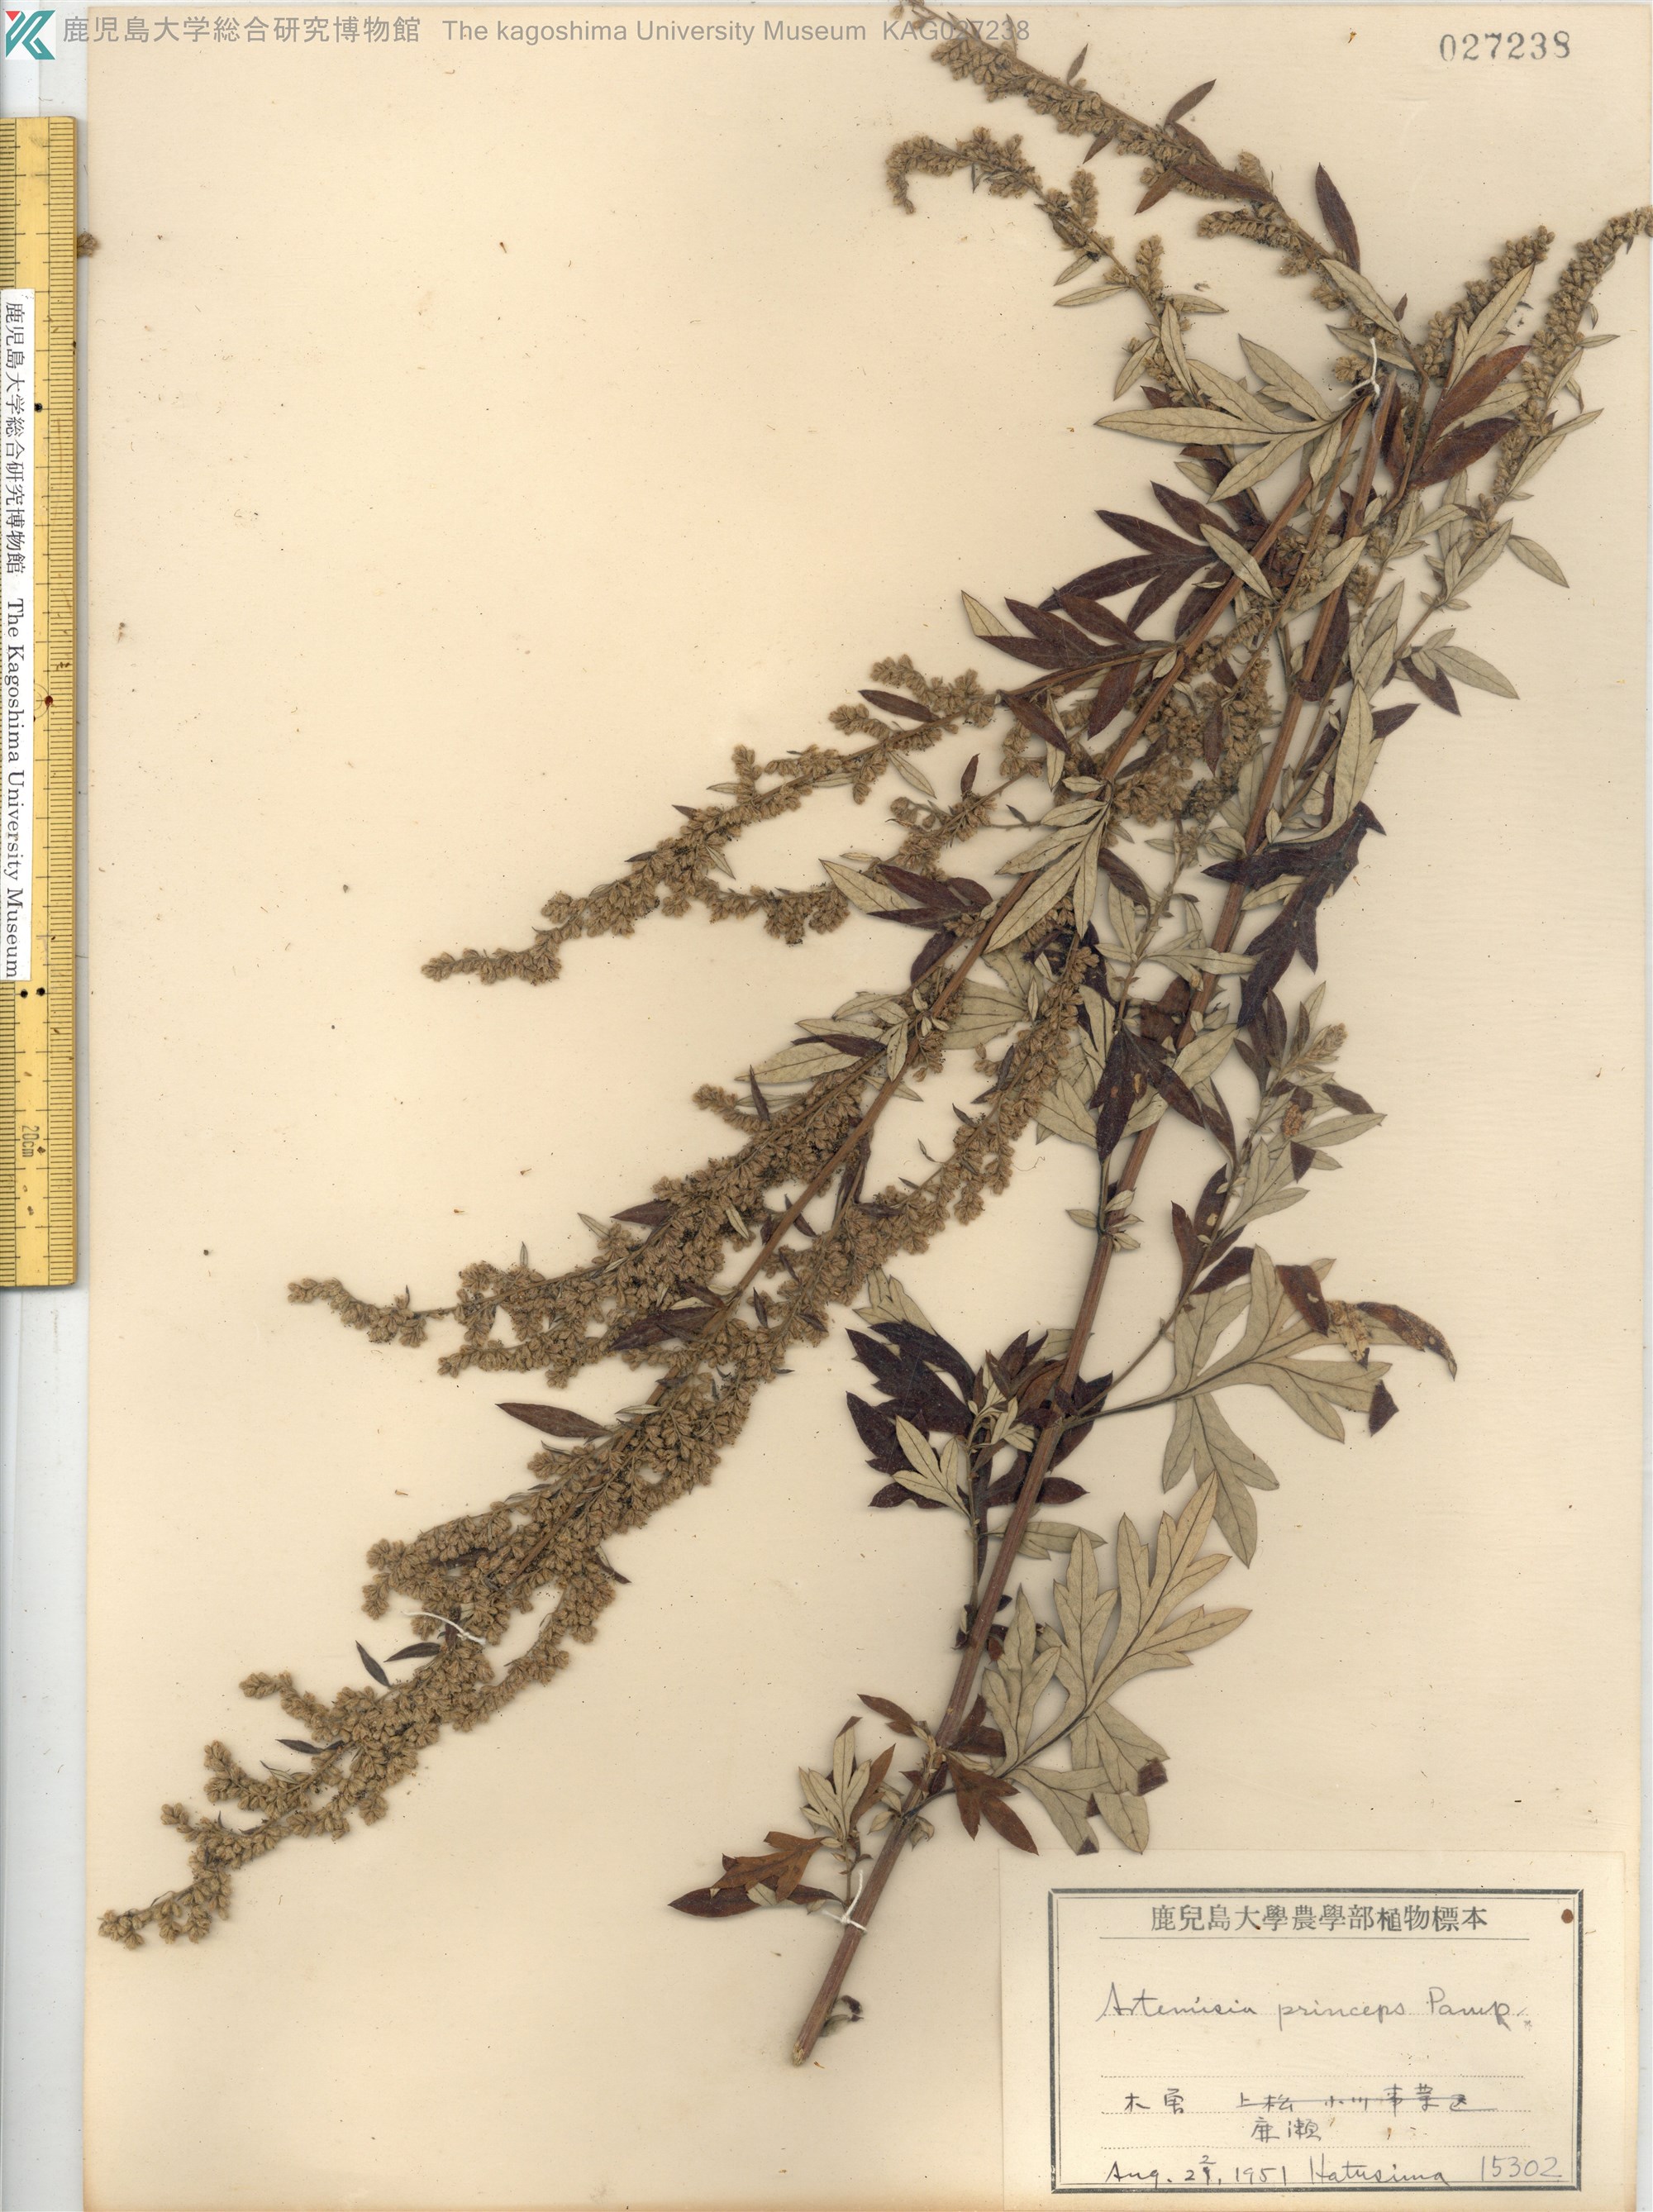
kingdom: Plantae
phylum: Tracheophyta
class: Magnoliopsida
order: Asterales
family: Asteraceae
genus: Artemisia
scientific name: Artemisia princeps
